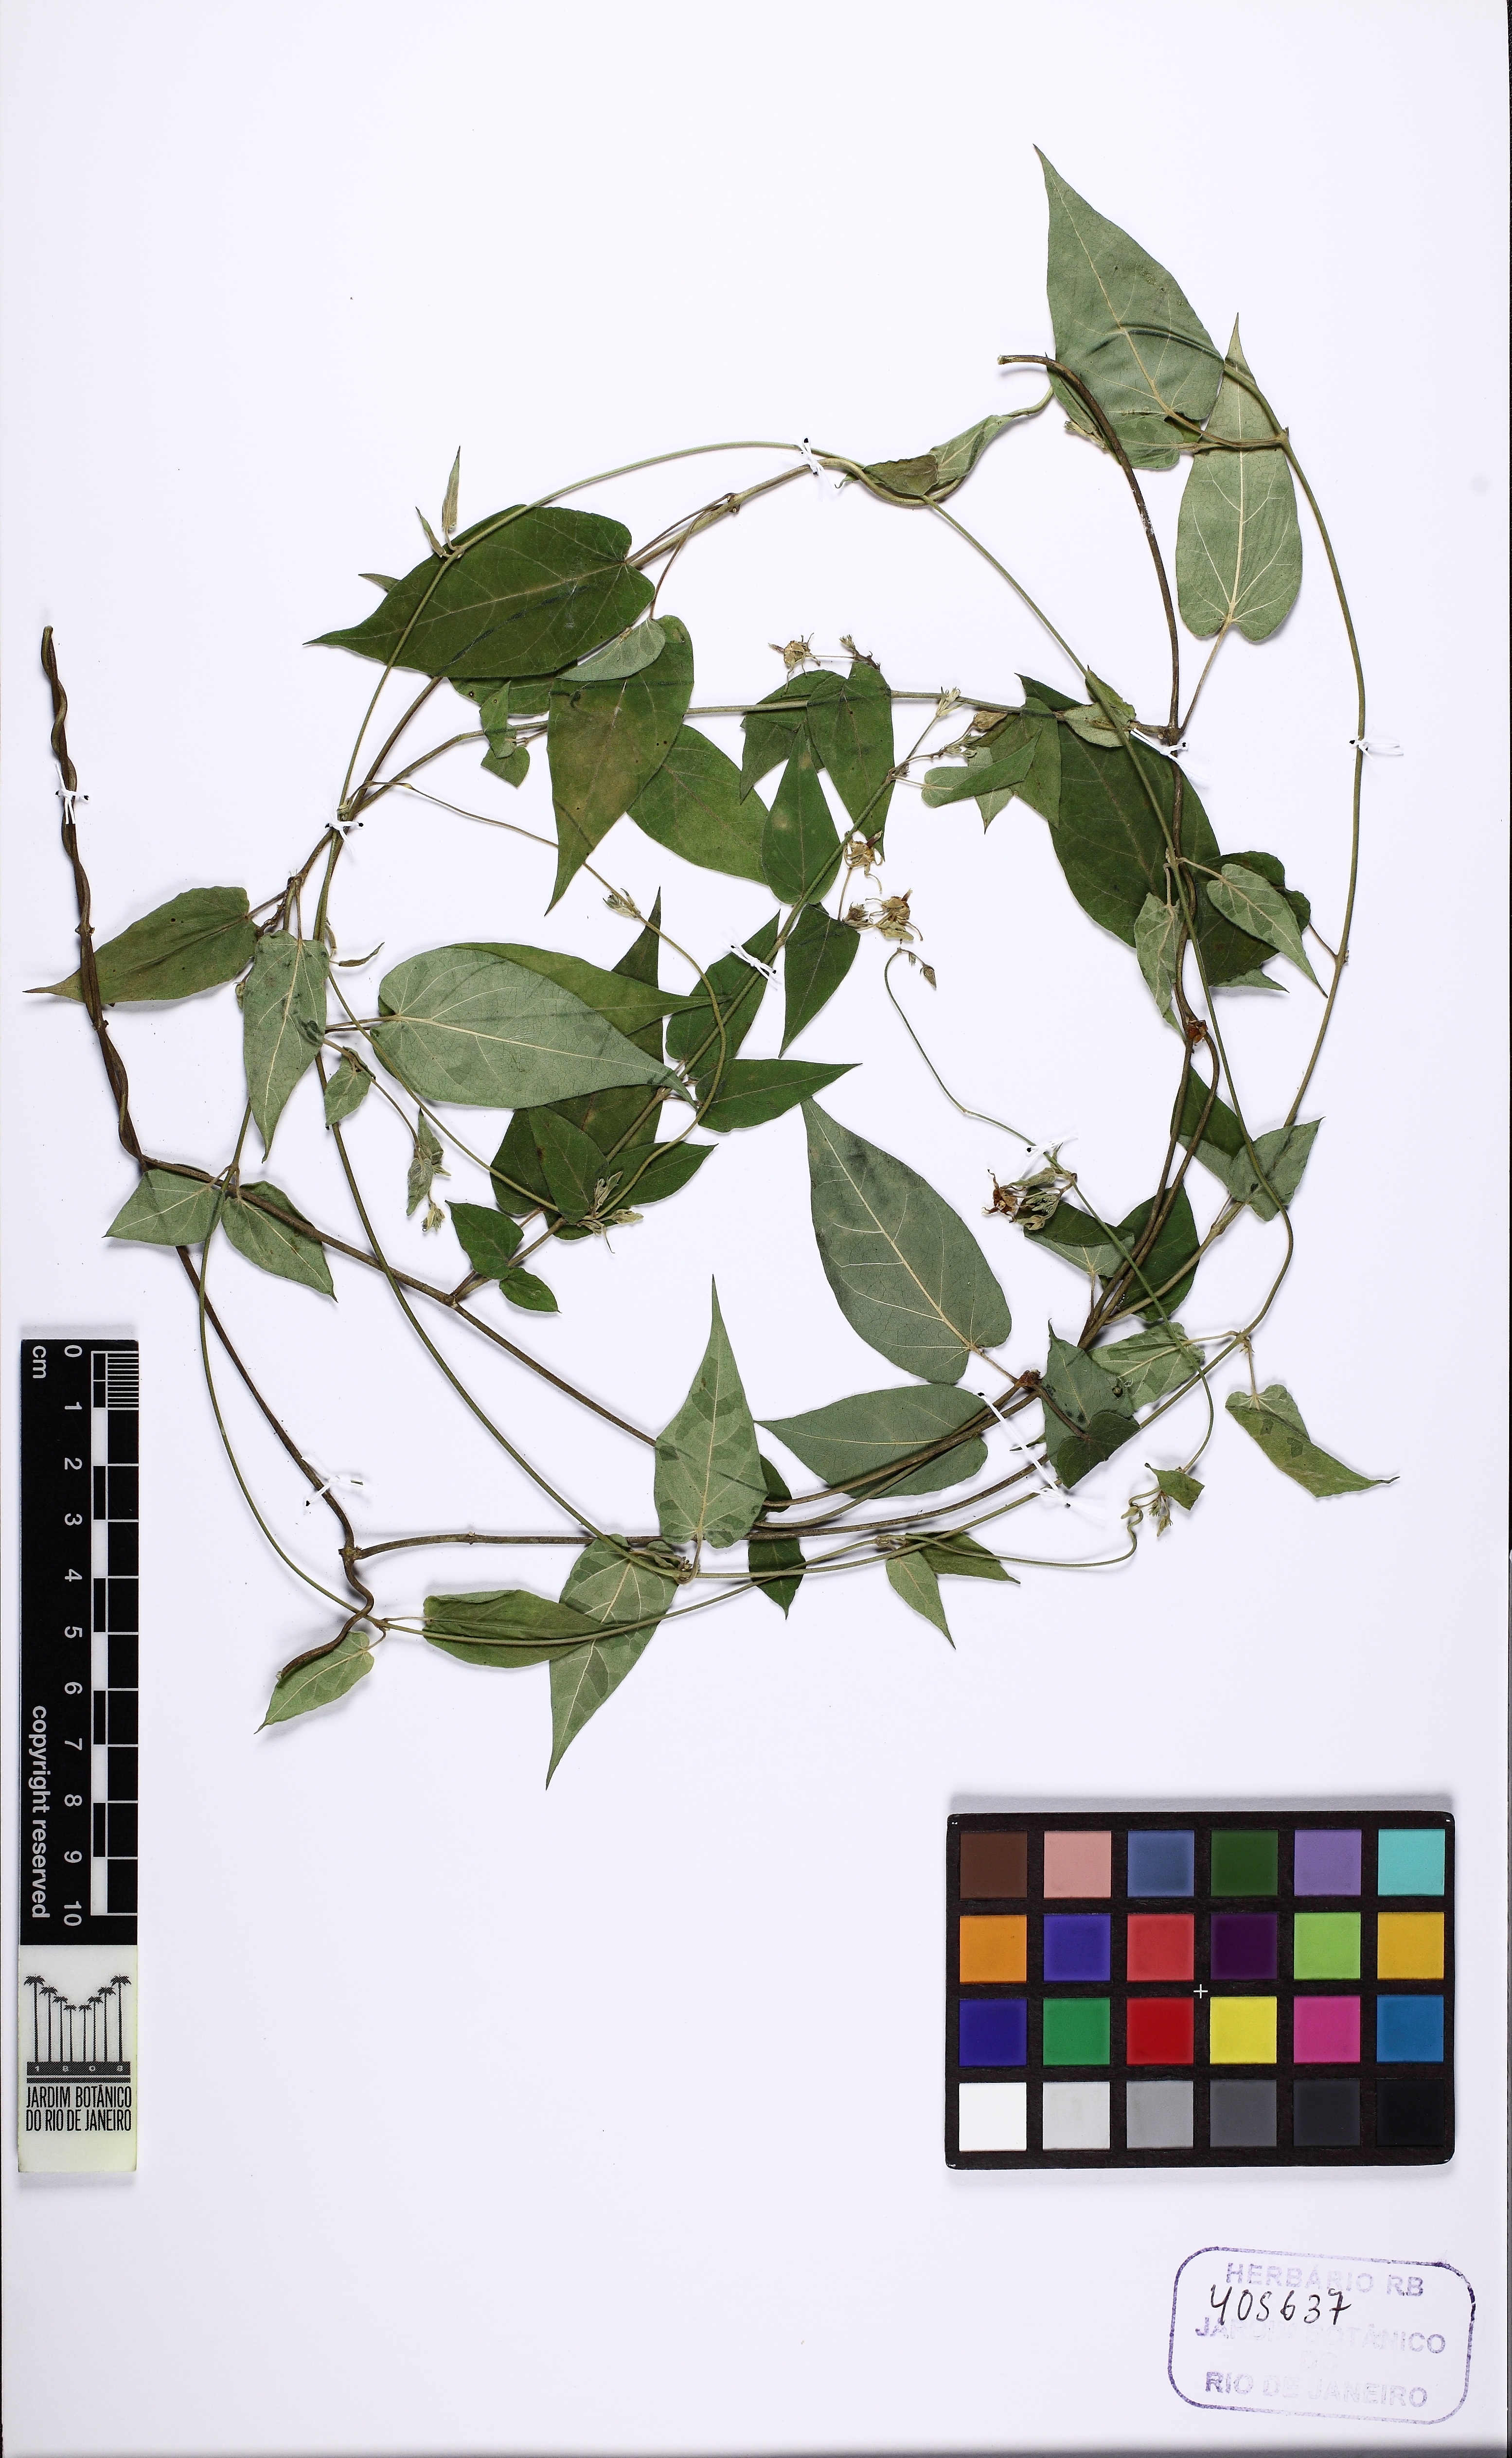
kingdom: Plantae
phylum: Tracheophyta
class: Magnoliopsida
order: Gentianales
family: Apocynaceae
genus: Oxypetalum
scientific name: Oxypetalum
